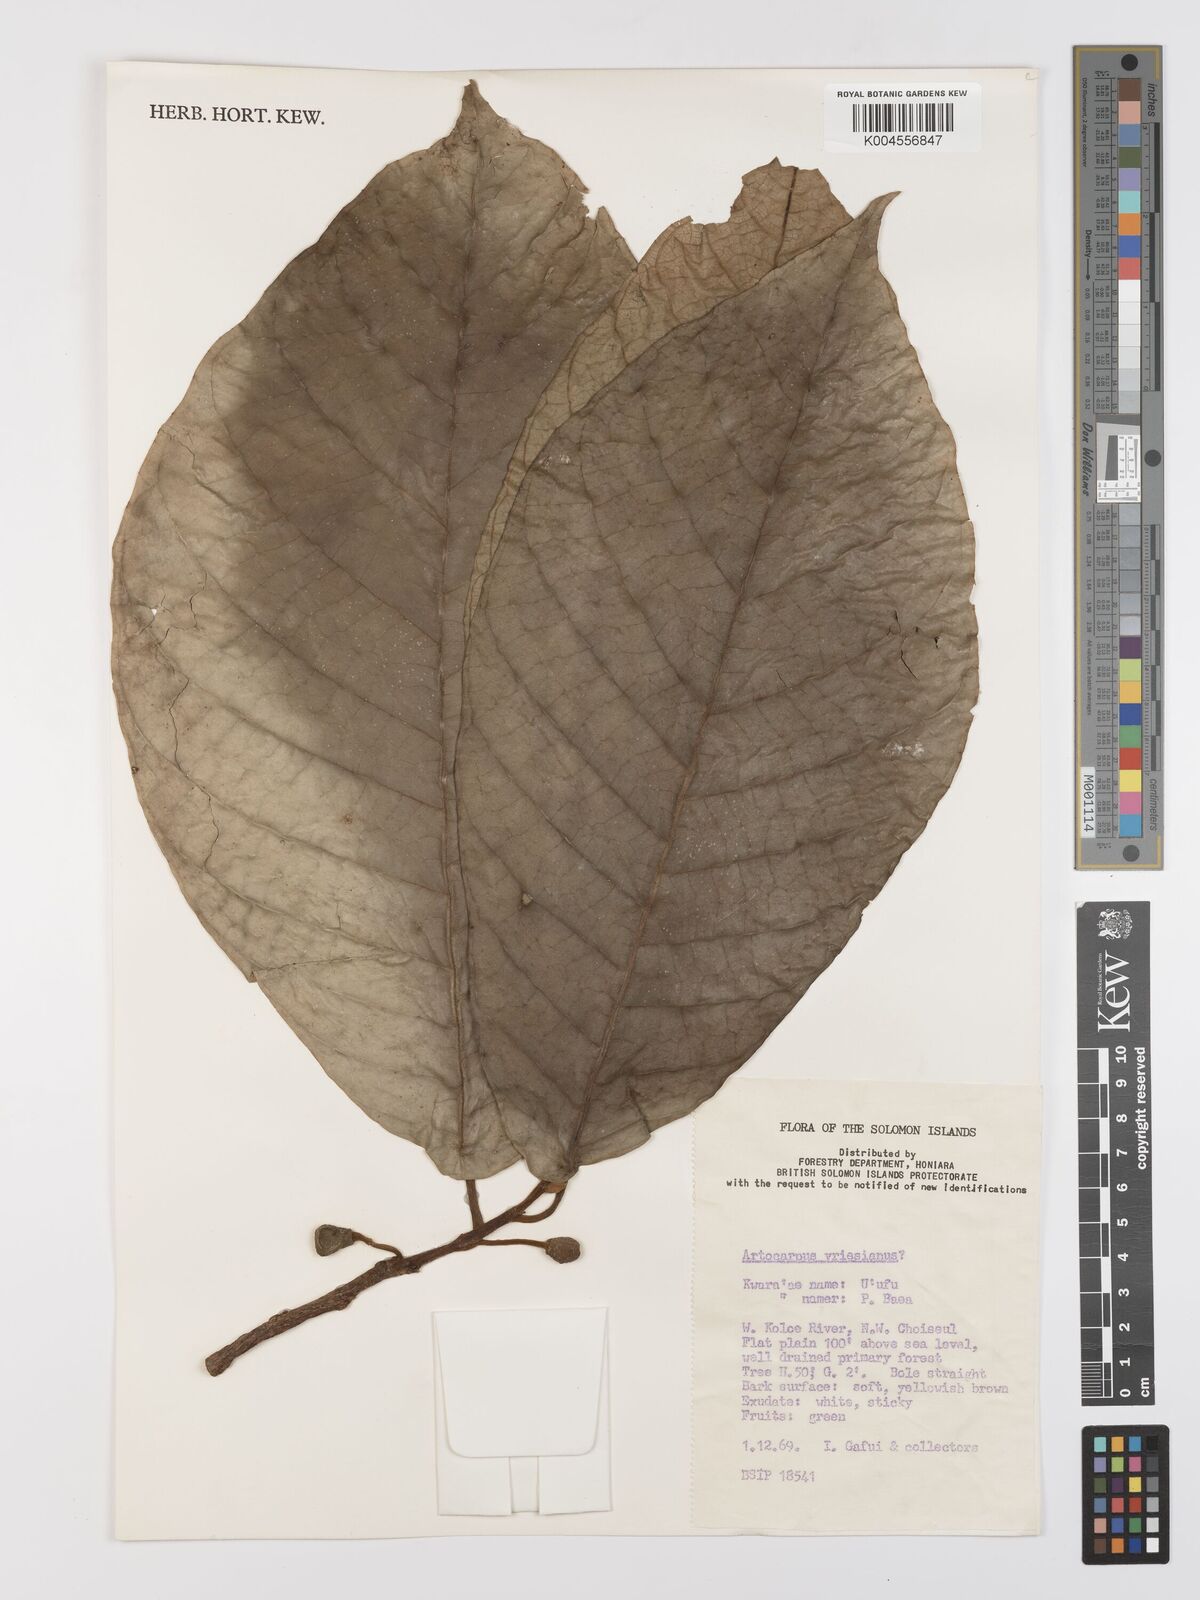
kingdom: Plantae
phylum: Tracheophyta
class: Magnoliopsida
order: Rosales
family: Moraceae
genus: Artocarpus
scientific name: Artocarpus vrieseanus
